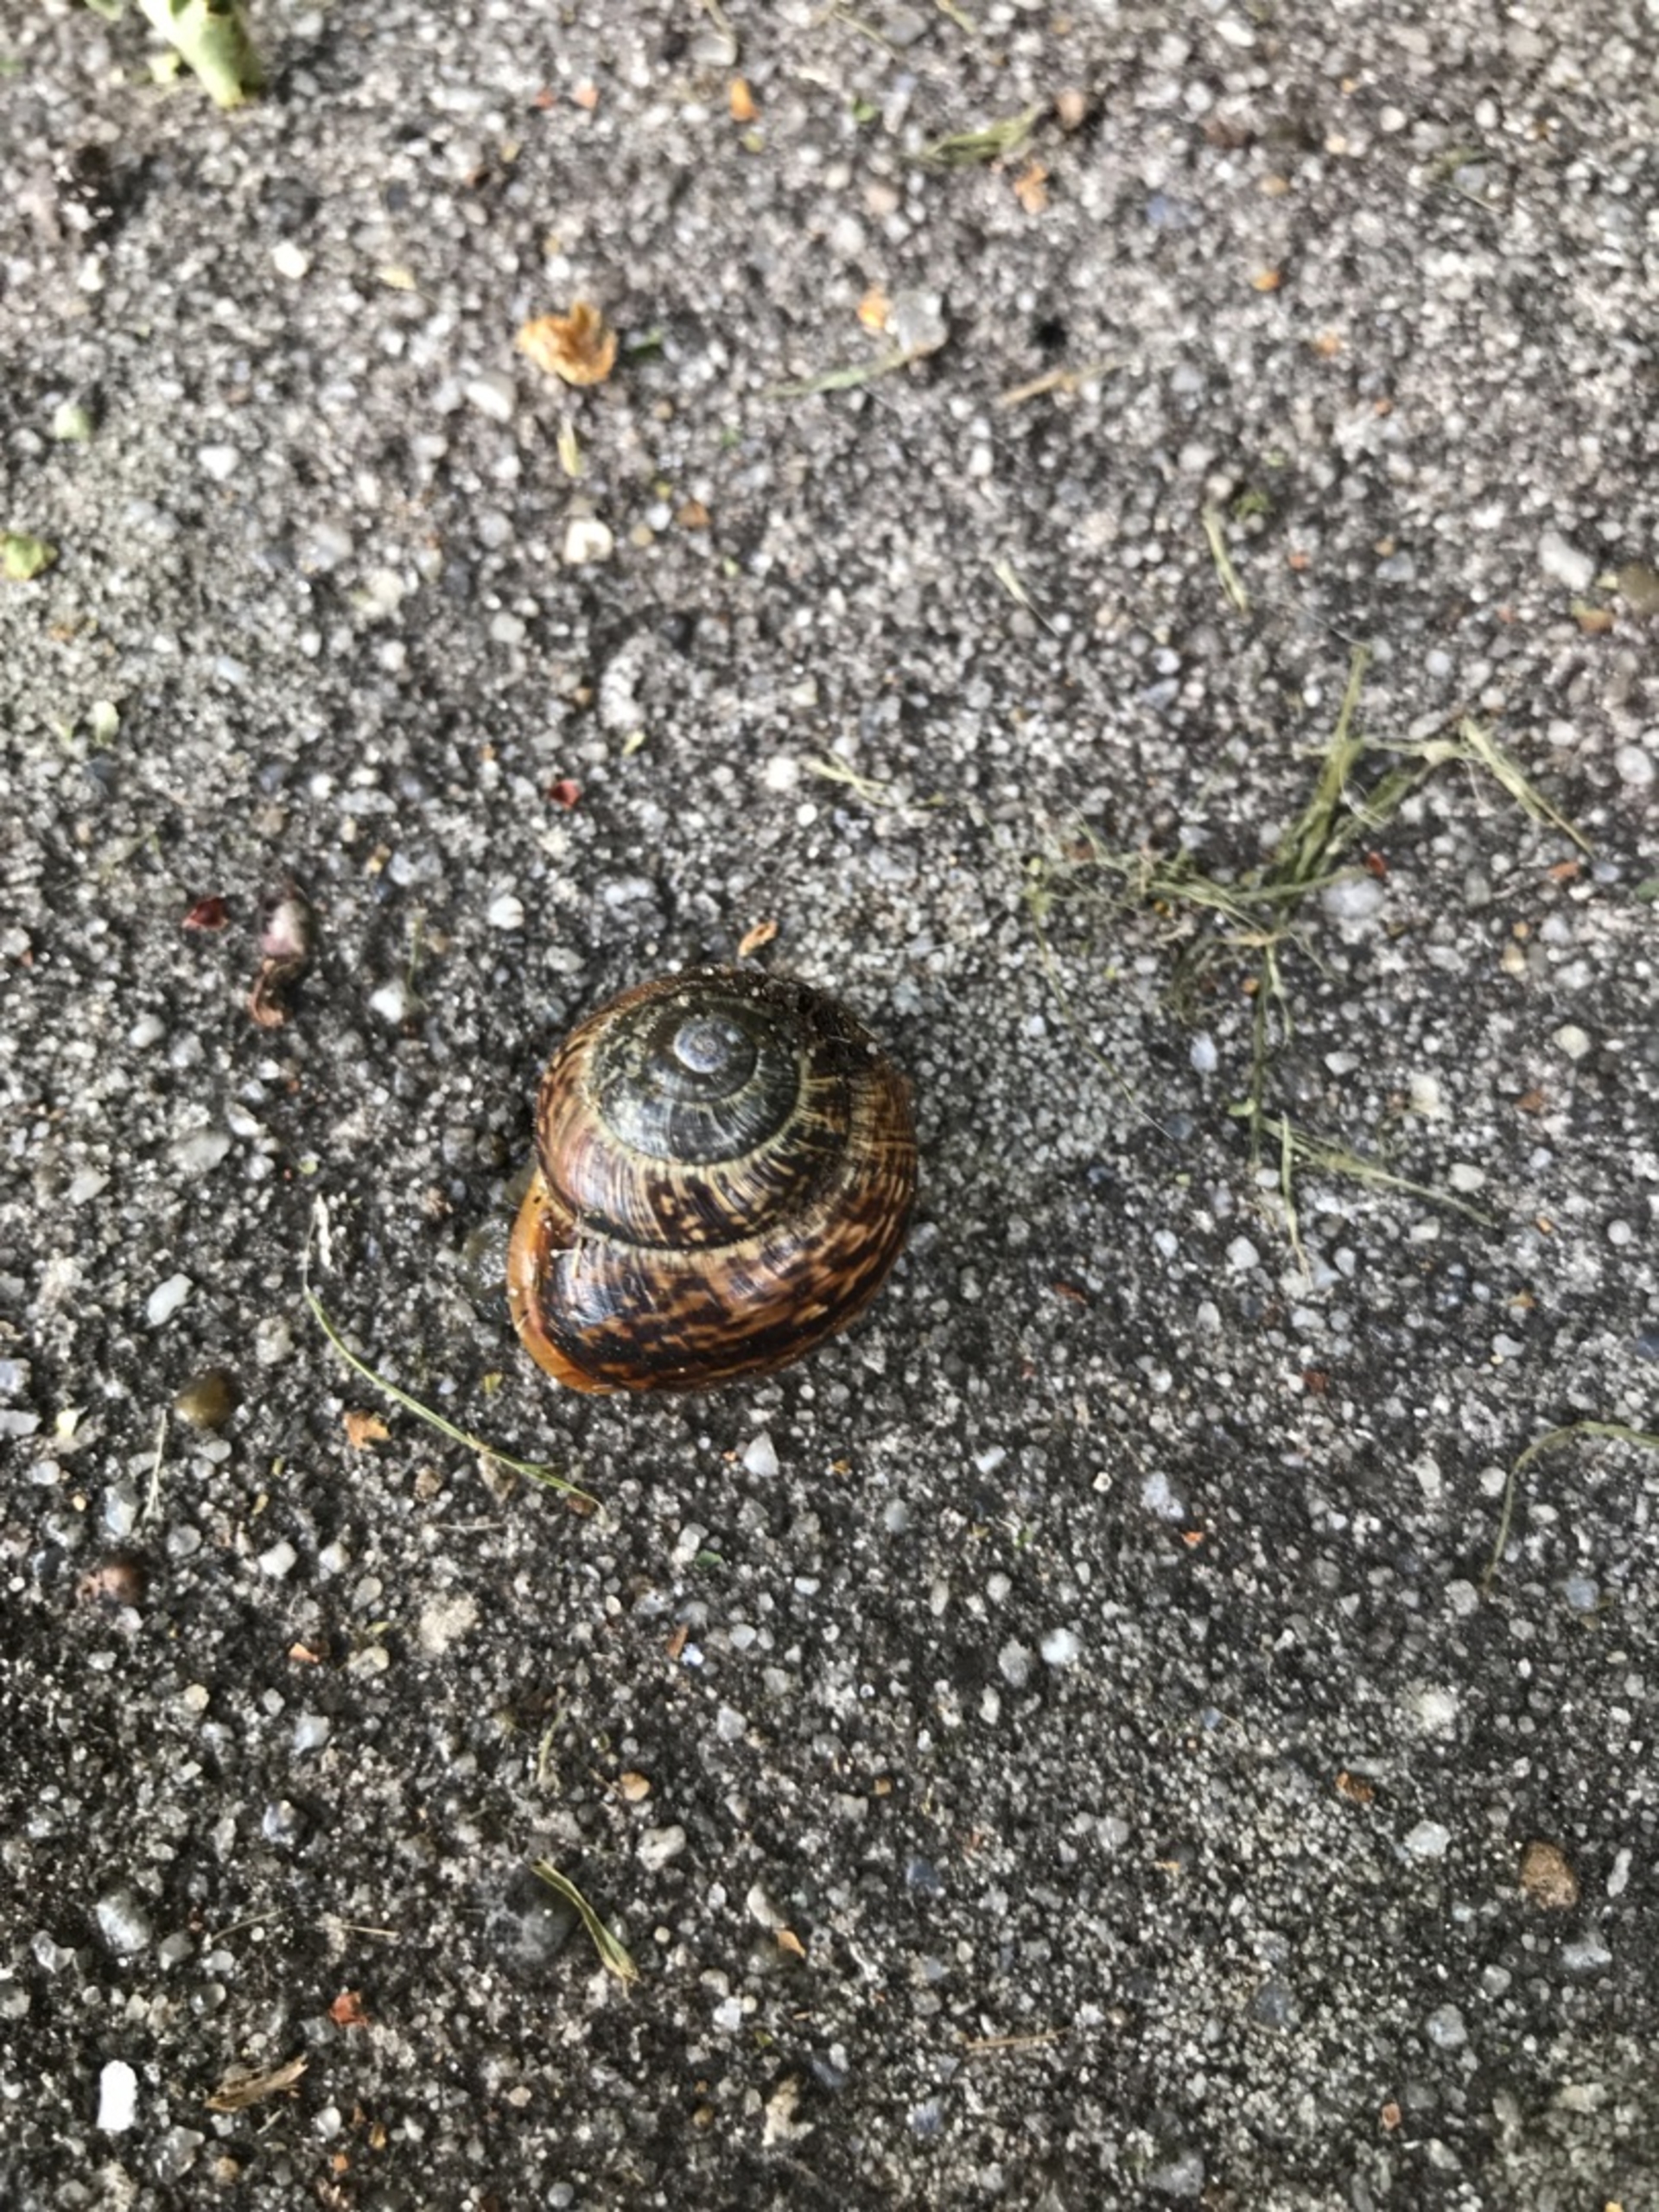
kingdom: Animalia
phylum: Mollusca
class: Gastropoda
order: Stylommatophora
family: Helicidae
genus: Arianta
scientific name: Arianta arbustorum
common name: Kratsnegl
